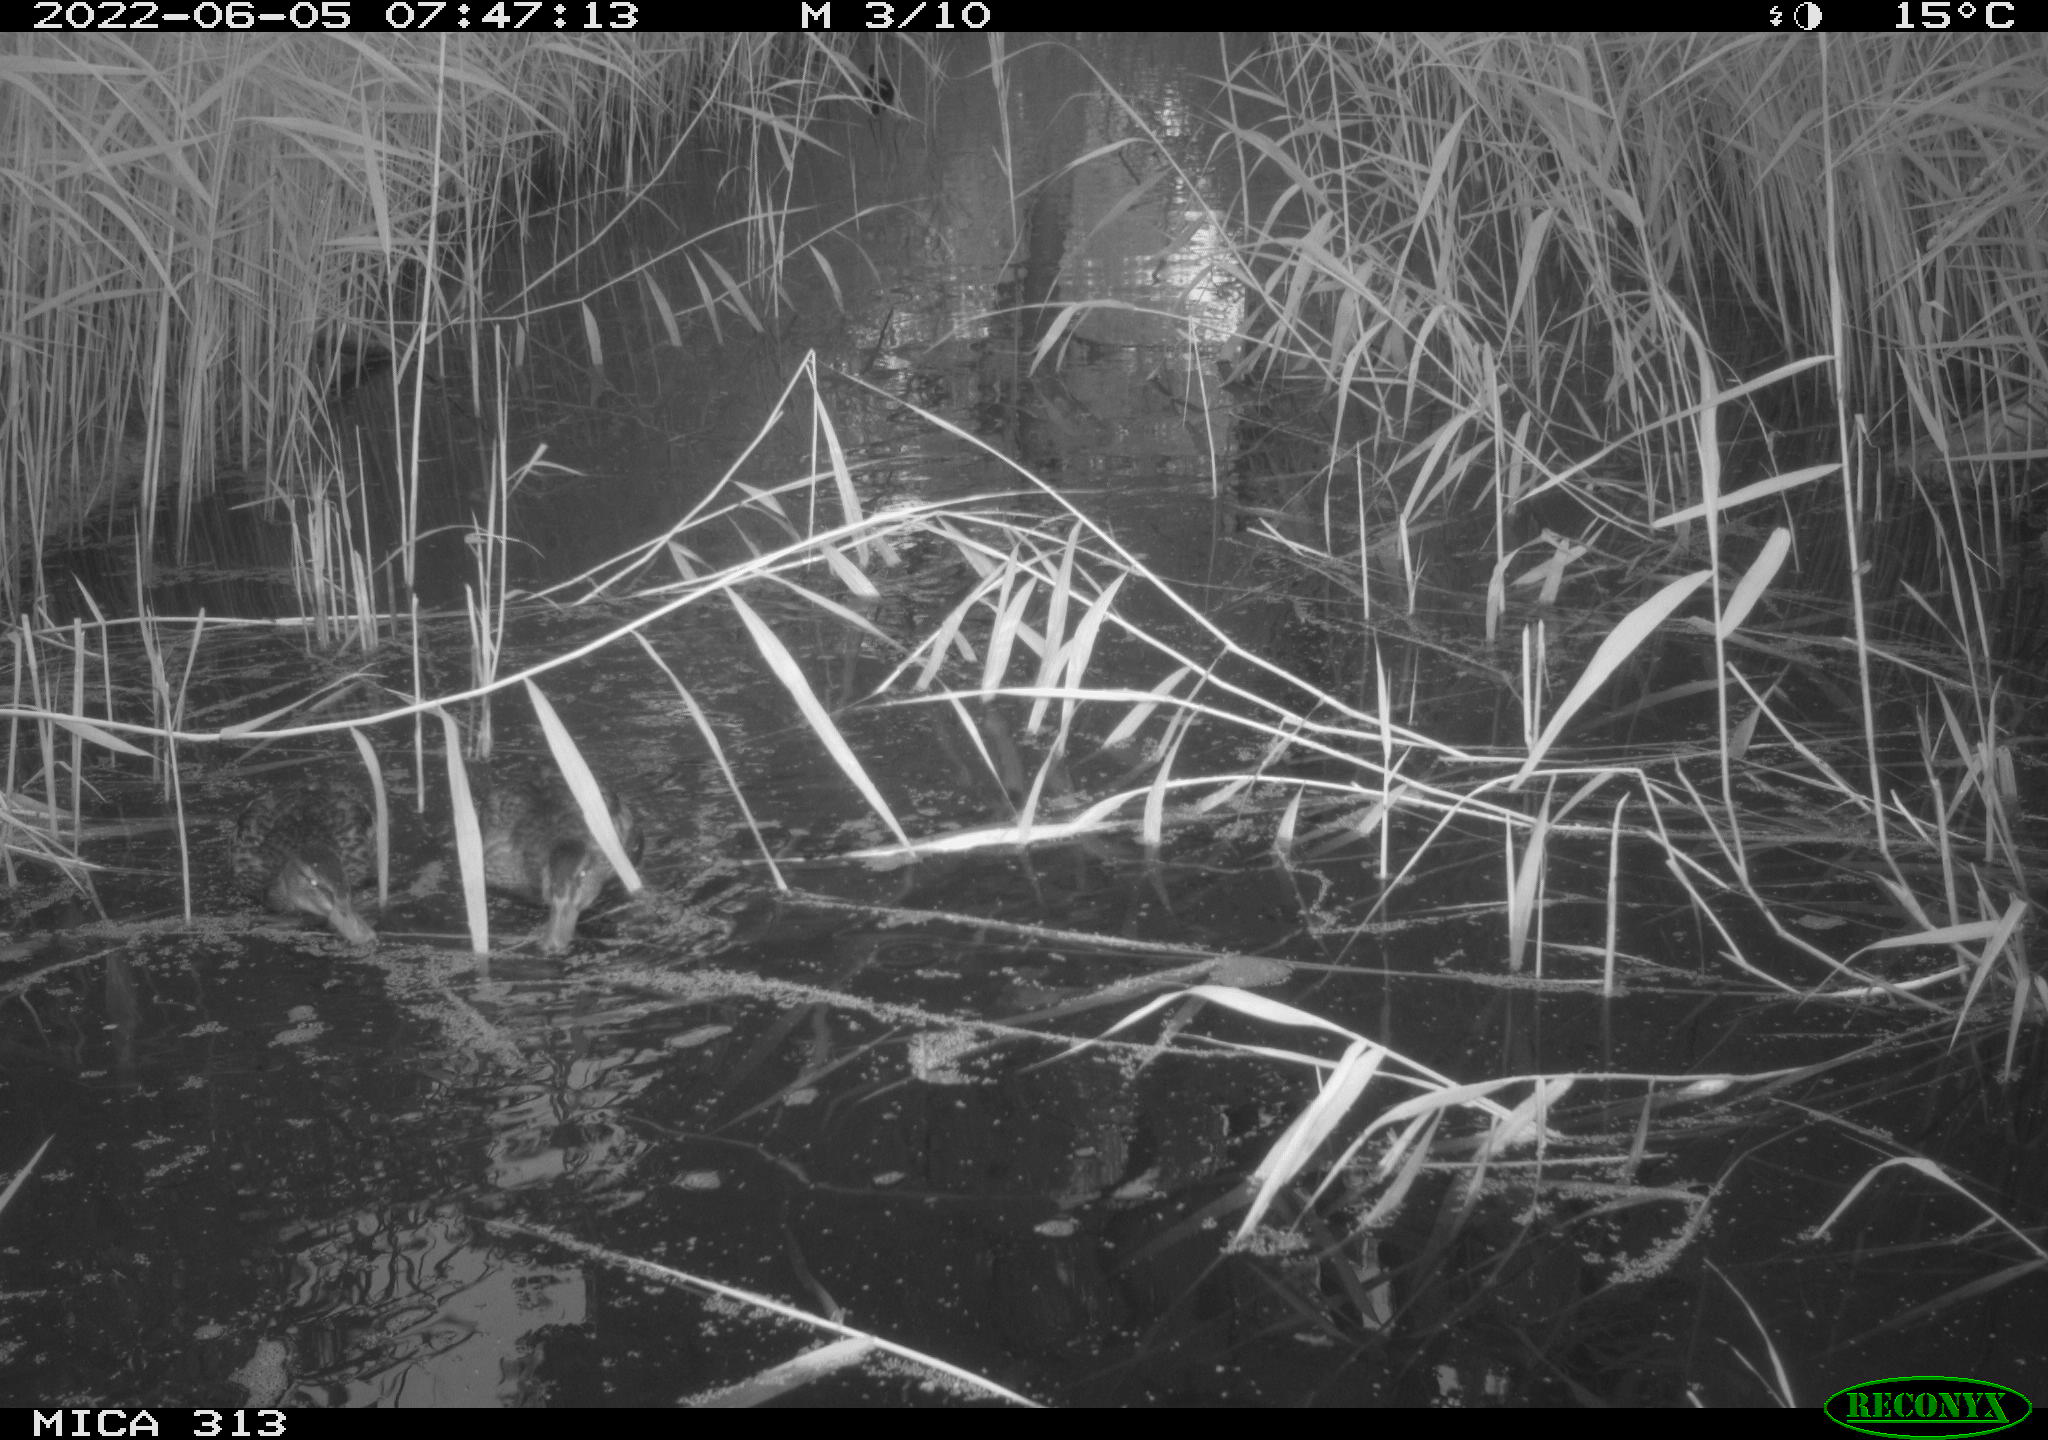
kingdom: Animalia
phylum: Chordata
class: Aves
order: Anseriformes
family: Anatidae
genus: Anas
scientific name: Anas platyrhynchos
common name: Mallard
